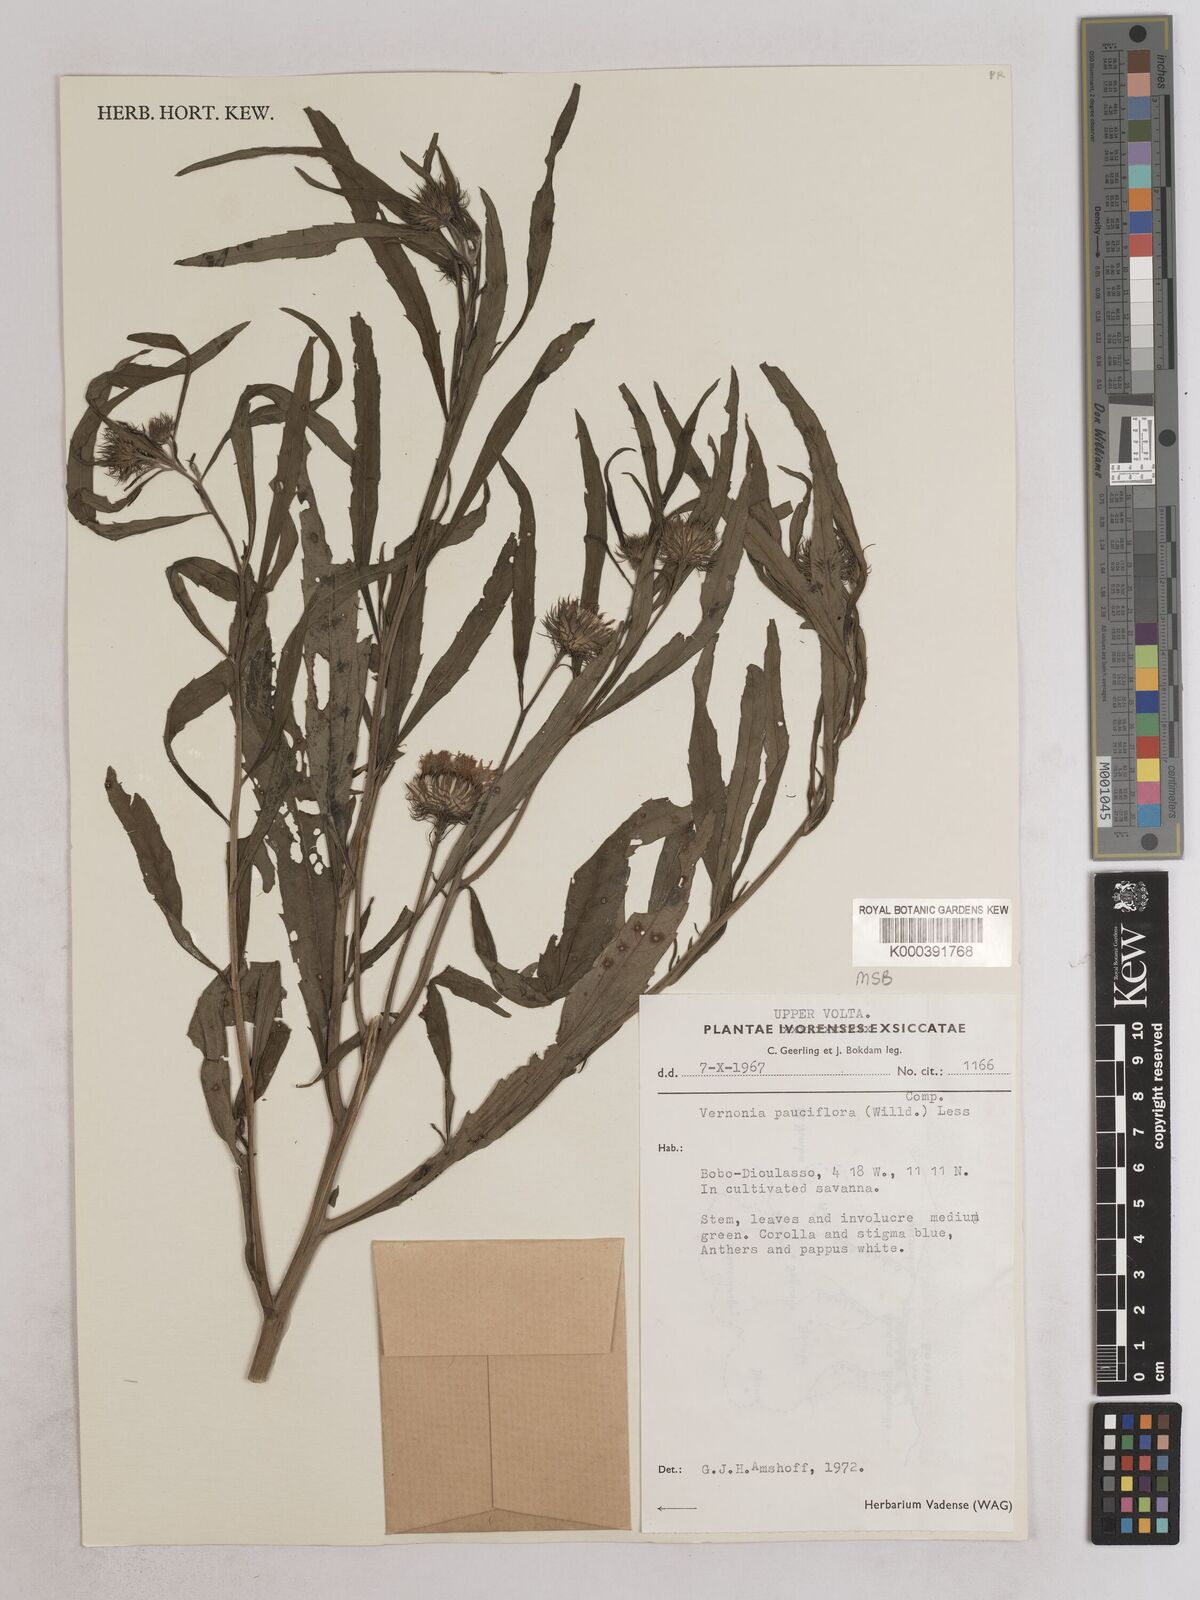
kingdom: Plantae
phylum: Tracheophyta
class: Magnoliopsida
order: Asterales
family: Asteraceae
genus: Vernonia
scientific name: Vernonia galamensis
